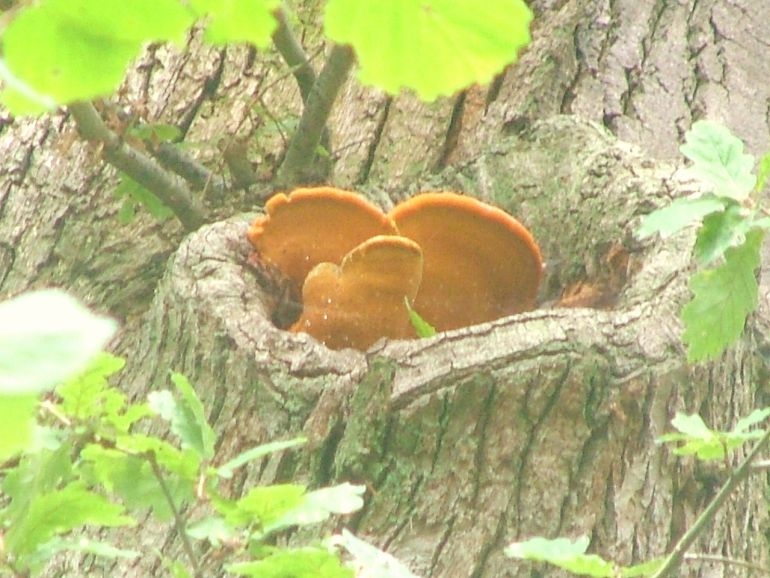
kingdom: Fungi
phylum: Basidiomycota
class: Agaricomycetes
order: Polyporales
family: Phanerochaetaceae
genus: Hapalopilus
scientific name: Hapalopilus croceus
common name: safrangul pragtporesvamp
